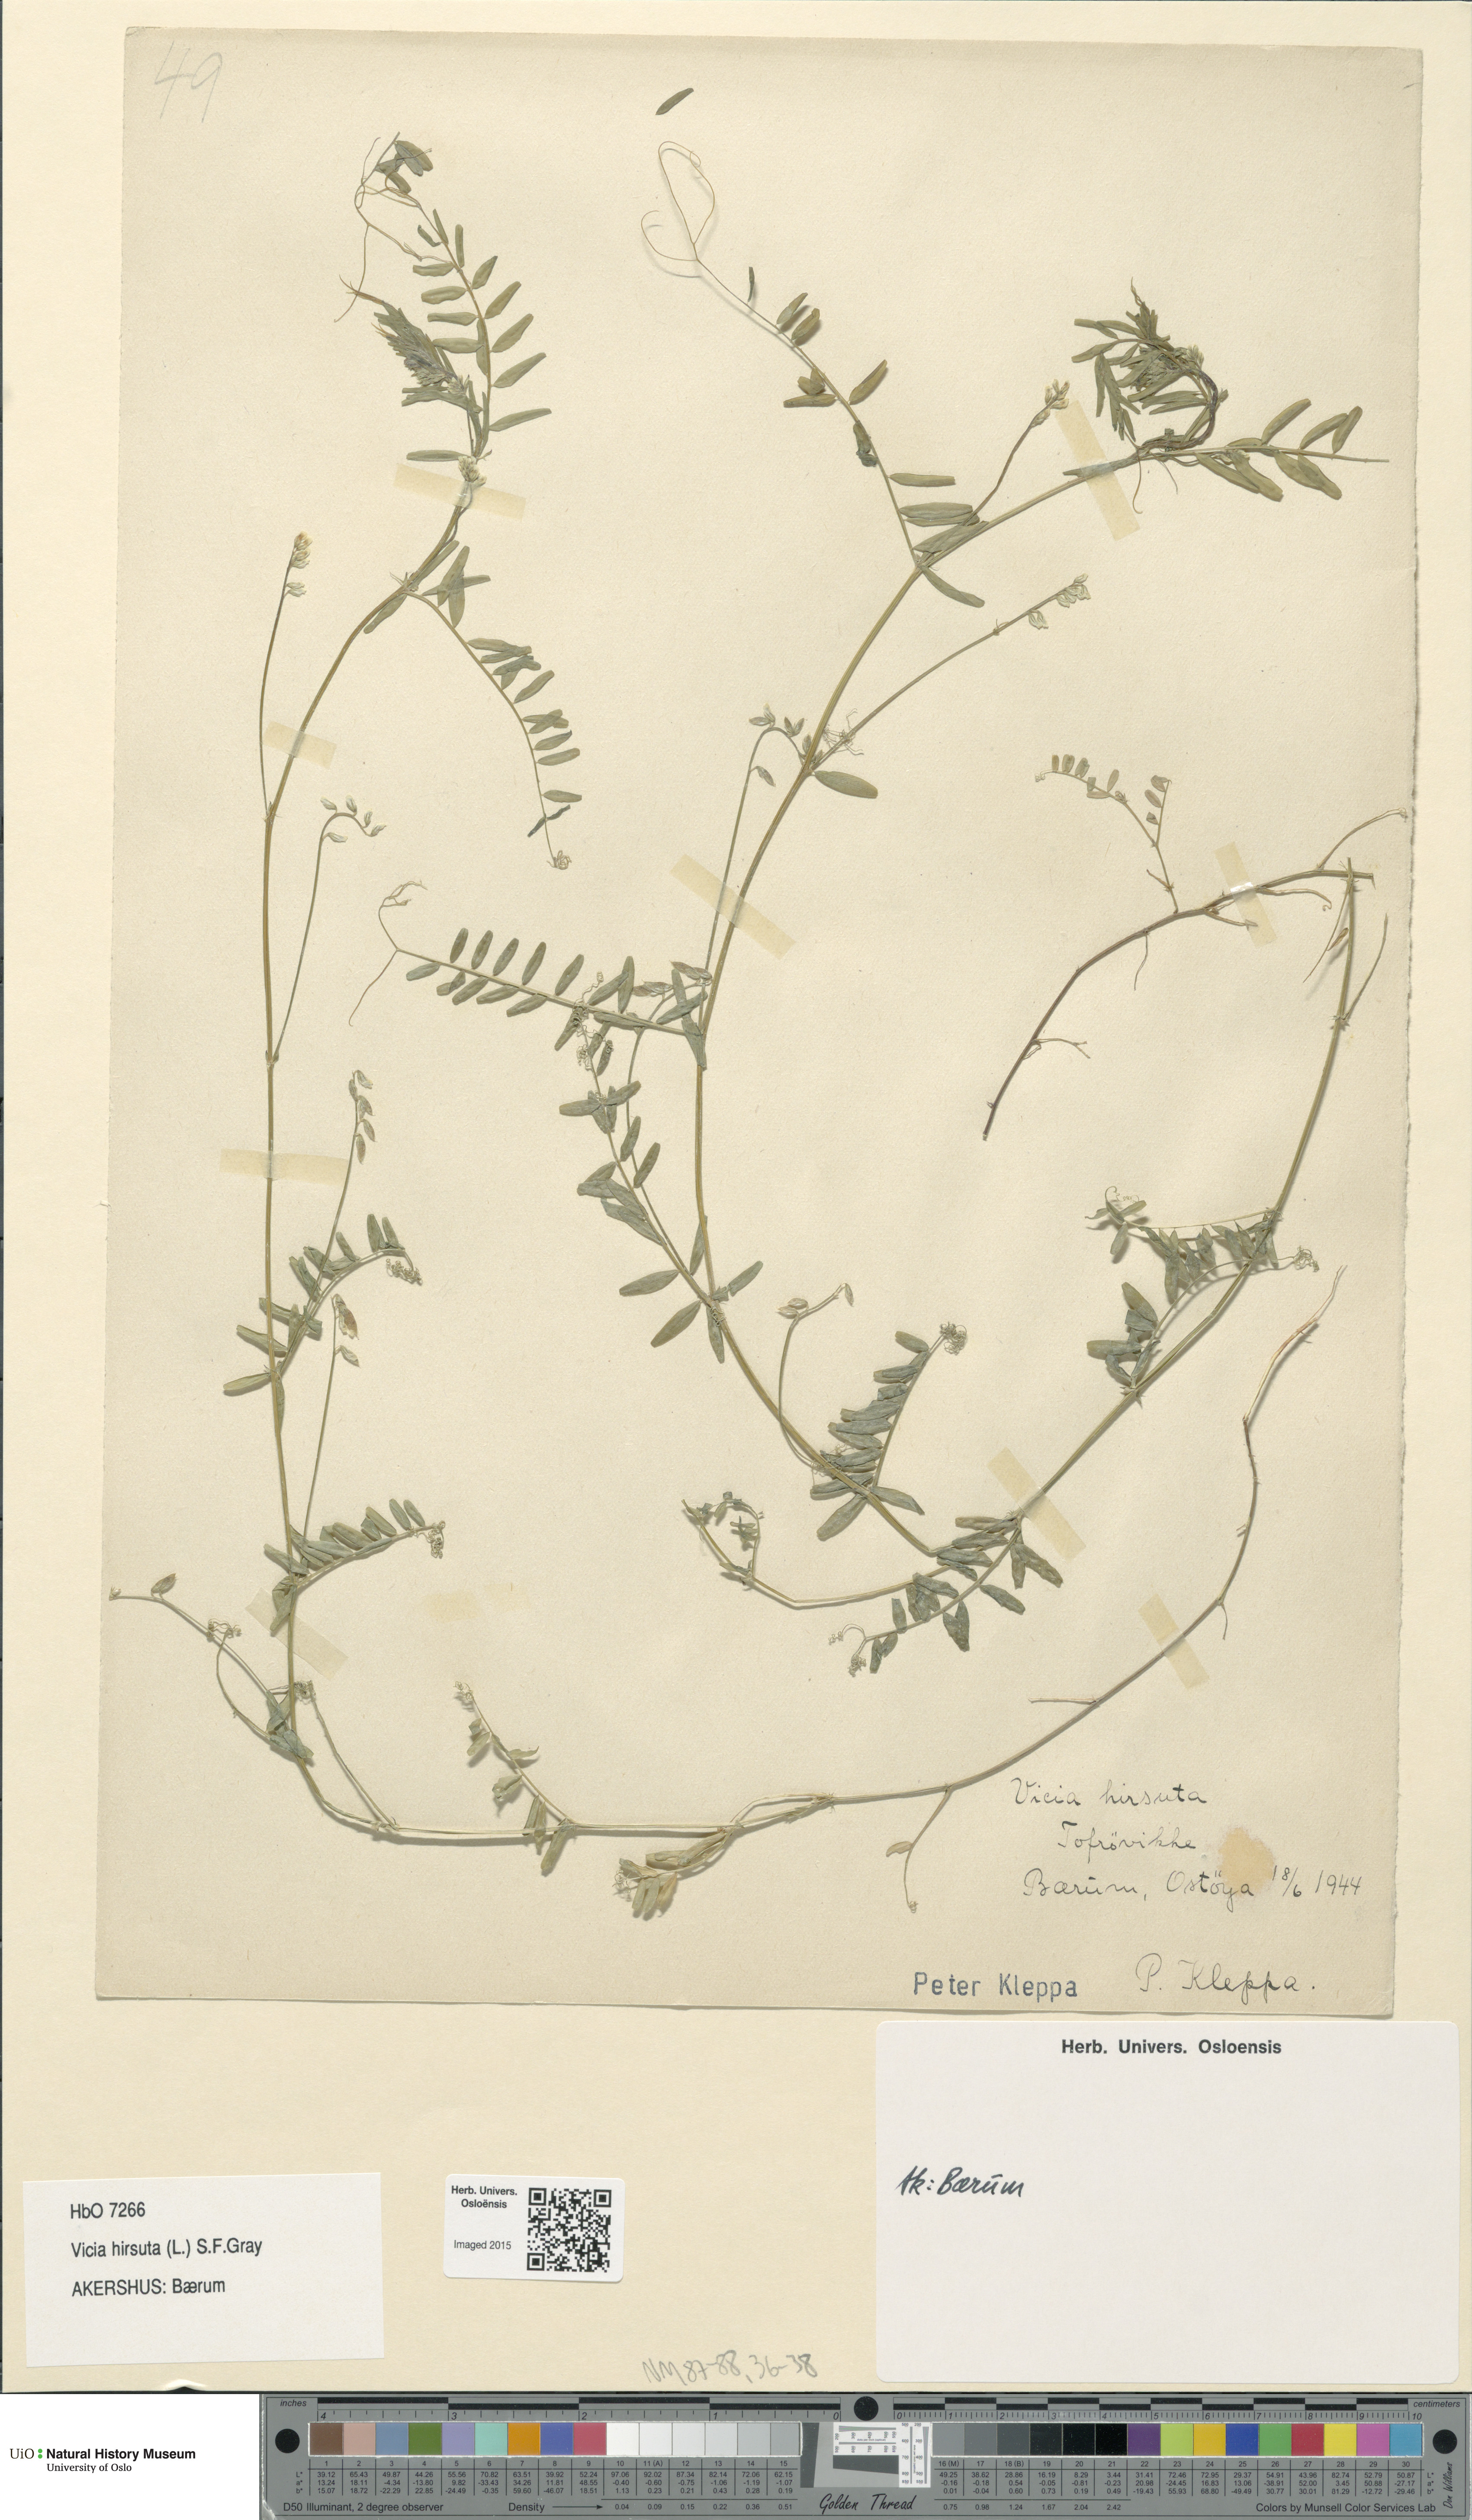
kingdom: Plantae
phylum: Tracheophyta
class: Magnoliopsida
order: Fabales
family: Fabaceae
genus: Vicia
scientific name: Vicia hirsuta
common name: Tiny vetch
